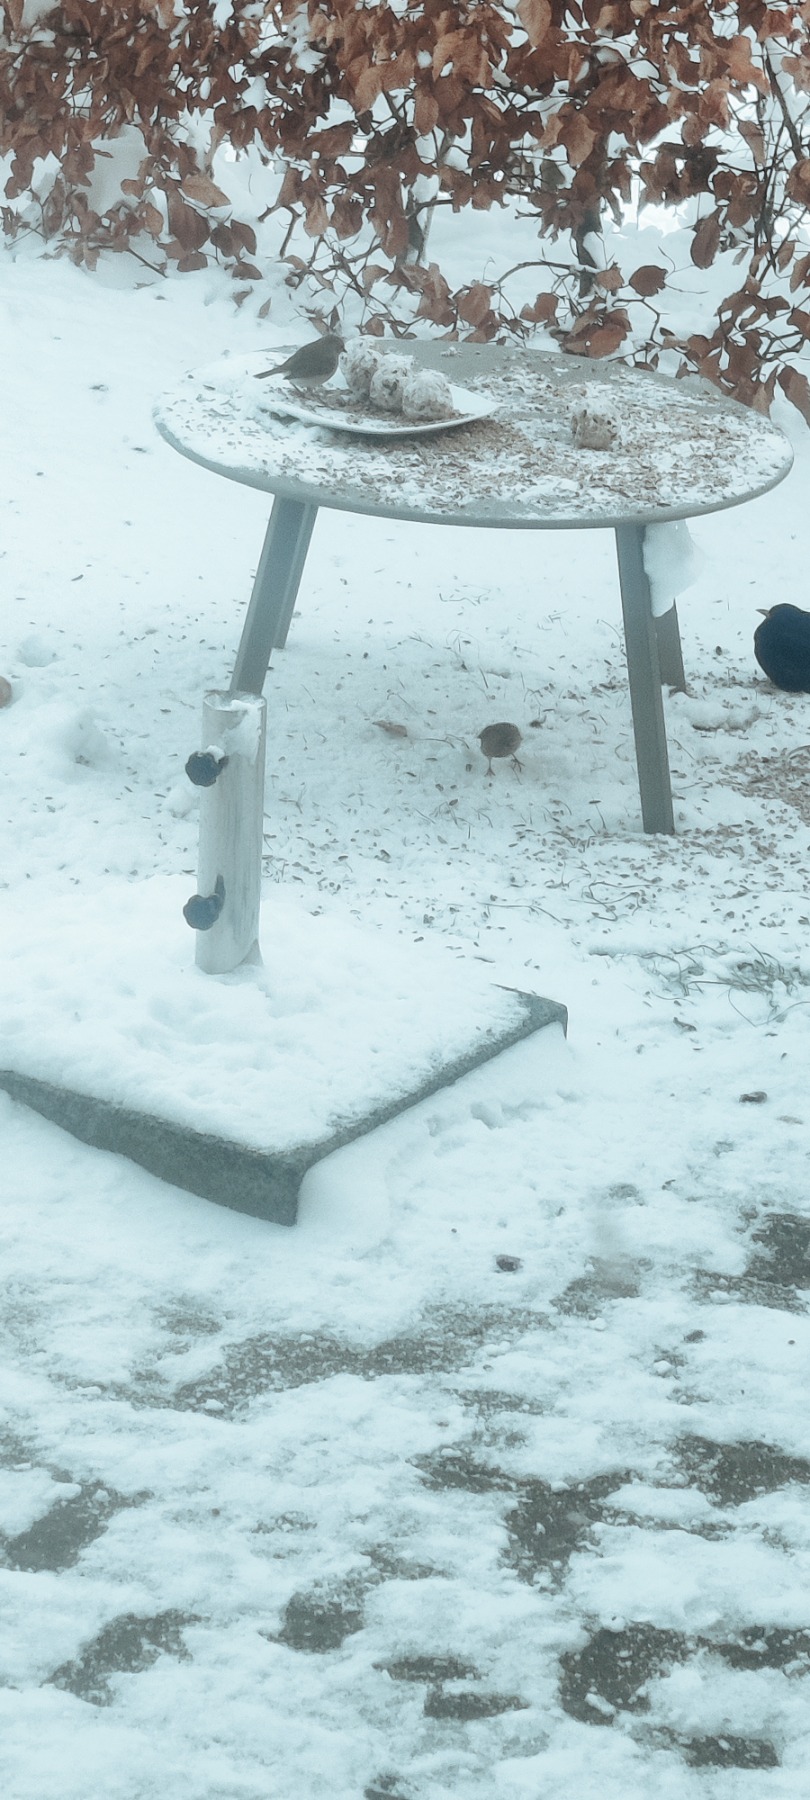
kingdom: Animalia
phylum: Chordata
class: Aves
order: Passeriformes
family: Muscicapidae
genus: Erithacus
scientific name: Erithacus rubecula
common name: Rødhals/rødkælk
